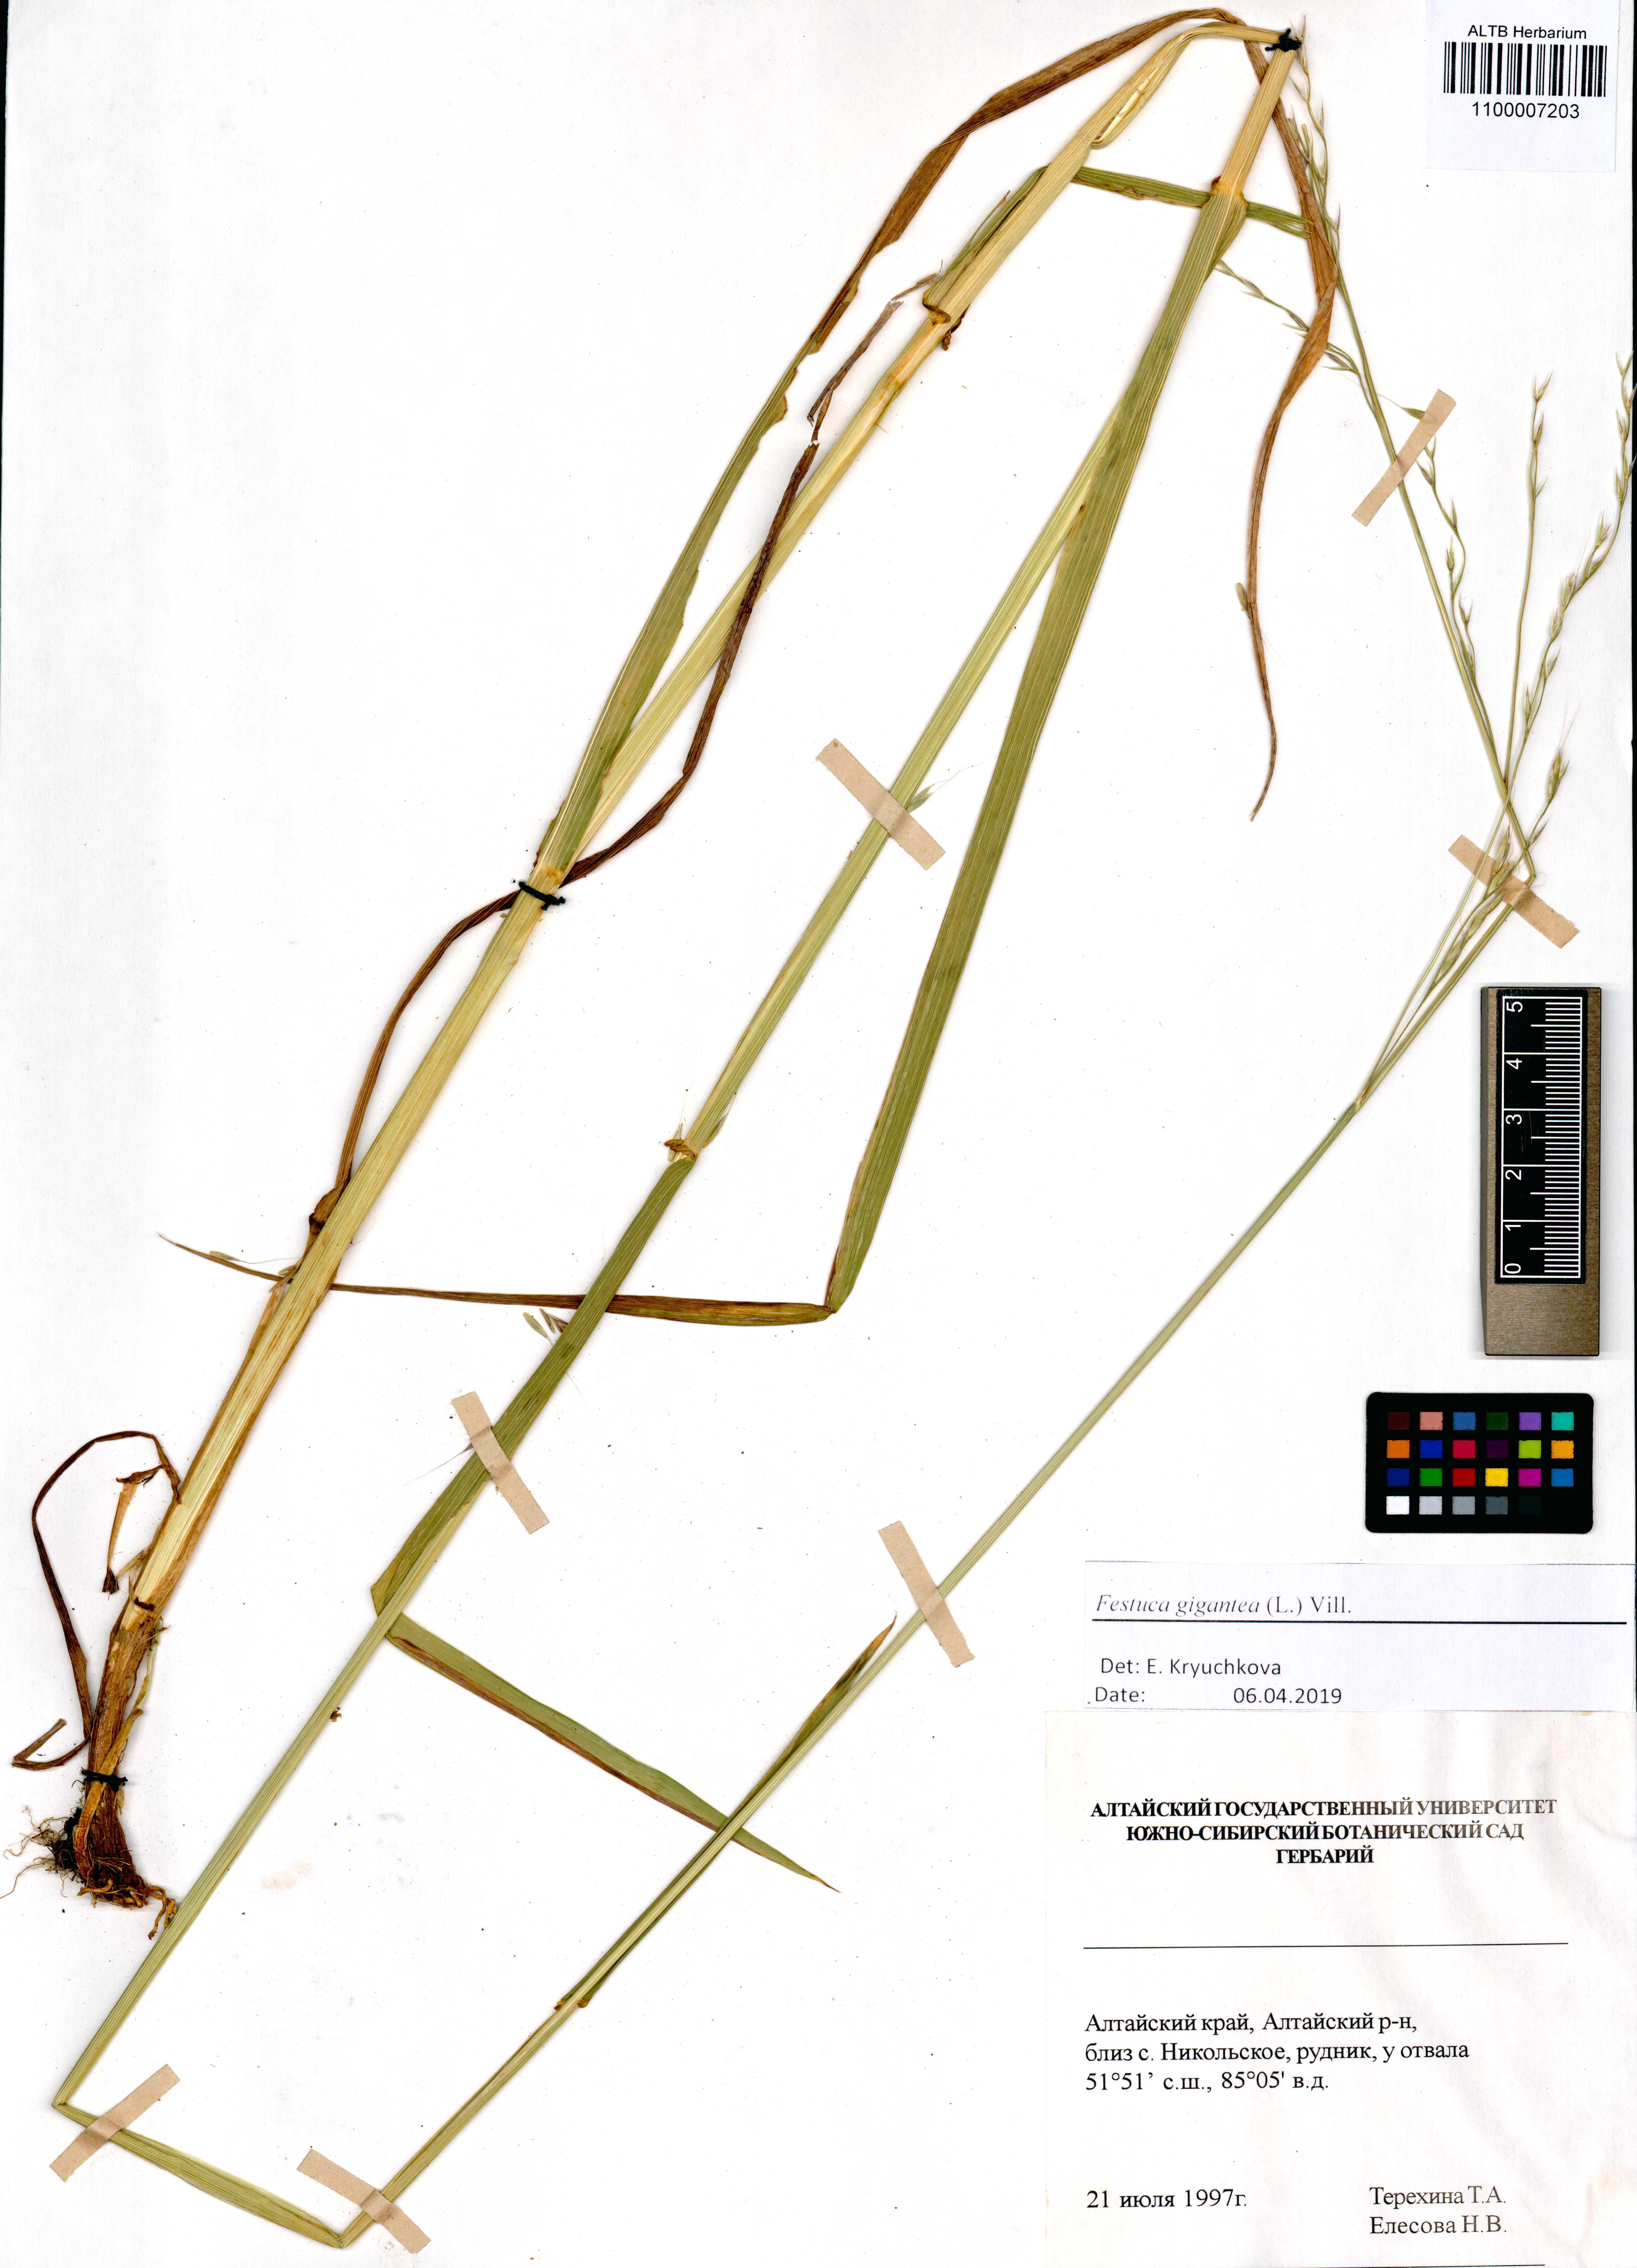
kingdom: Plantae
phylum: Tracheophyta
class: Liliopsida
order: Poales
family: Poaceae
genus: Lolium
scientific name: Lolium giganteum
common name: Giant fescue
